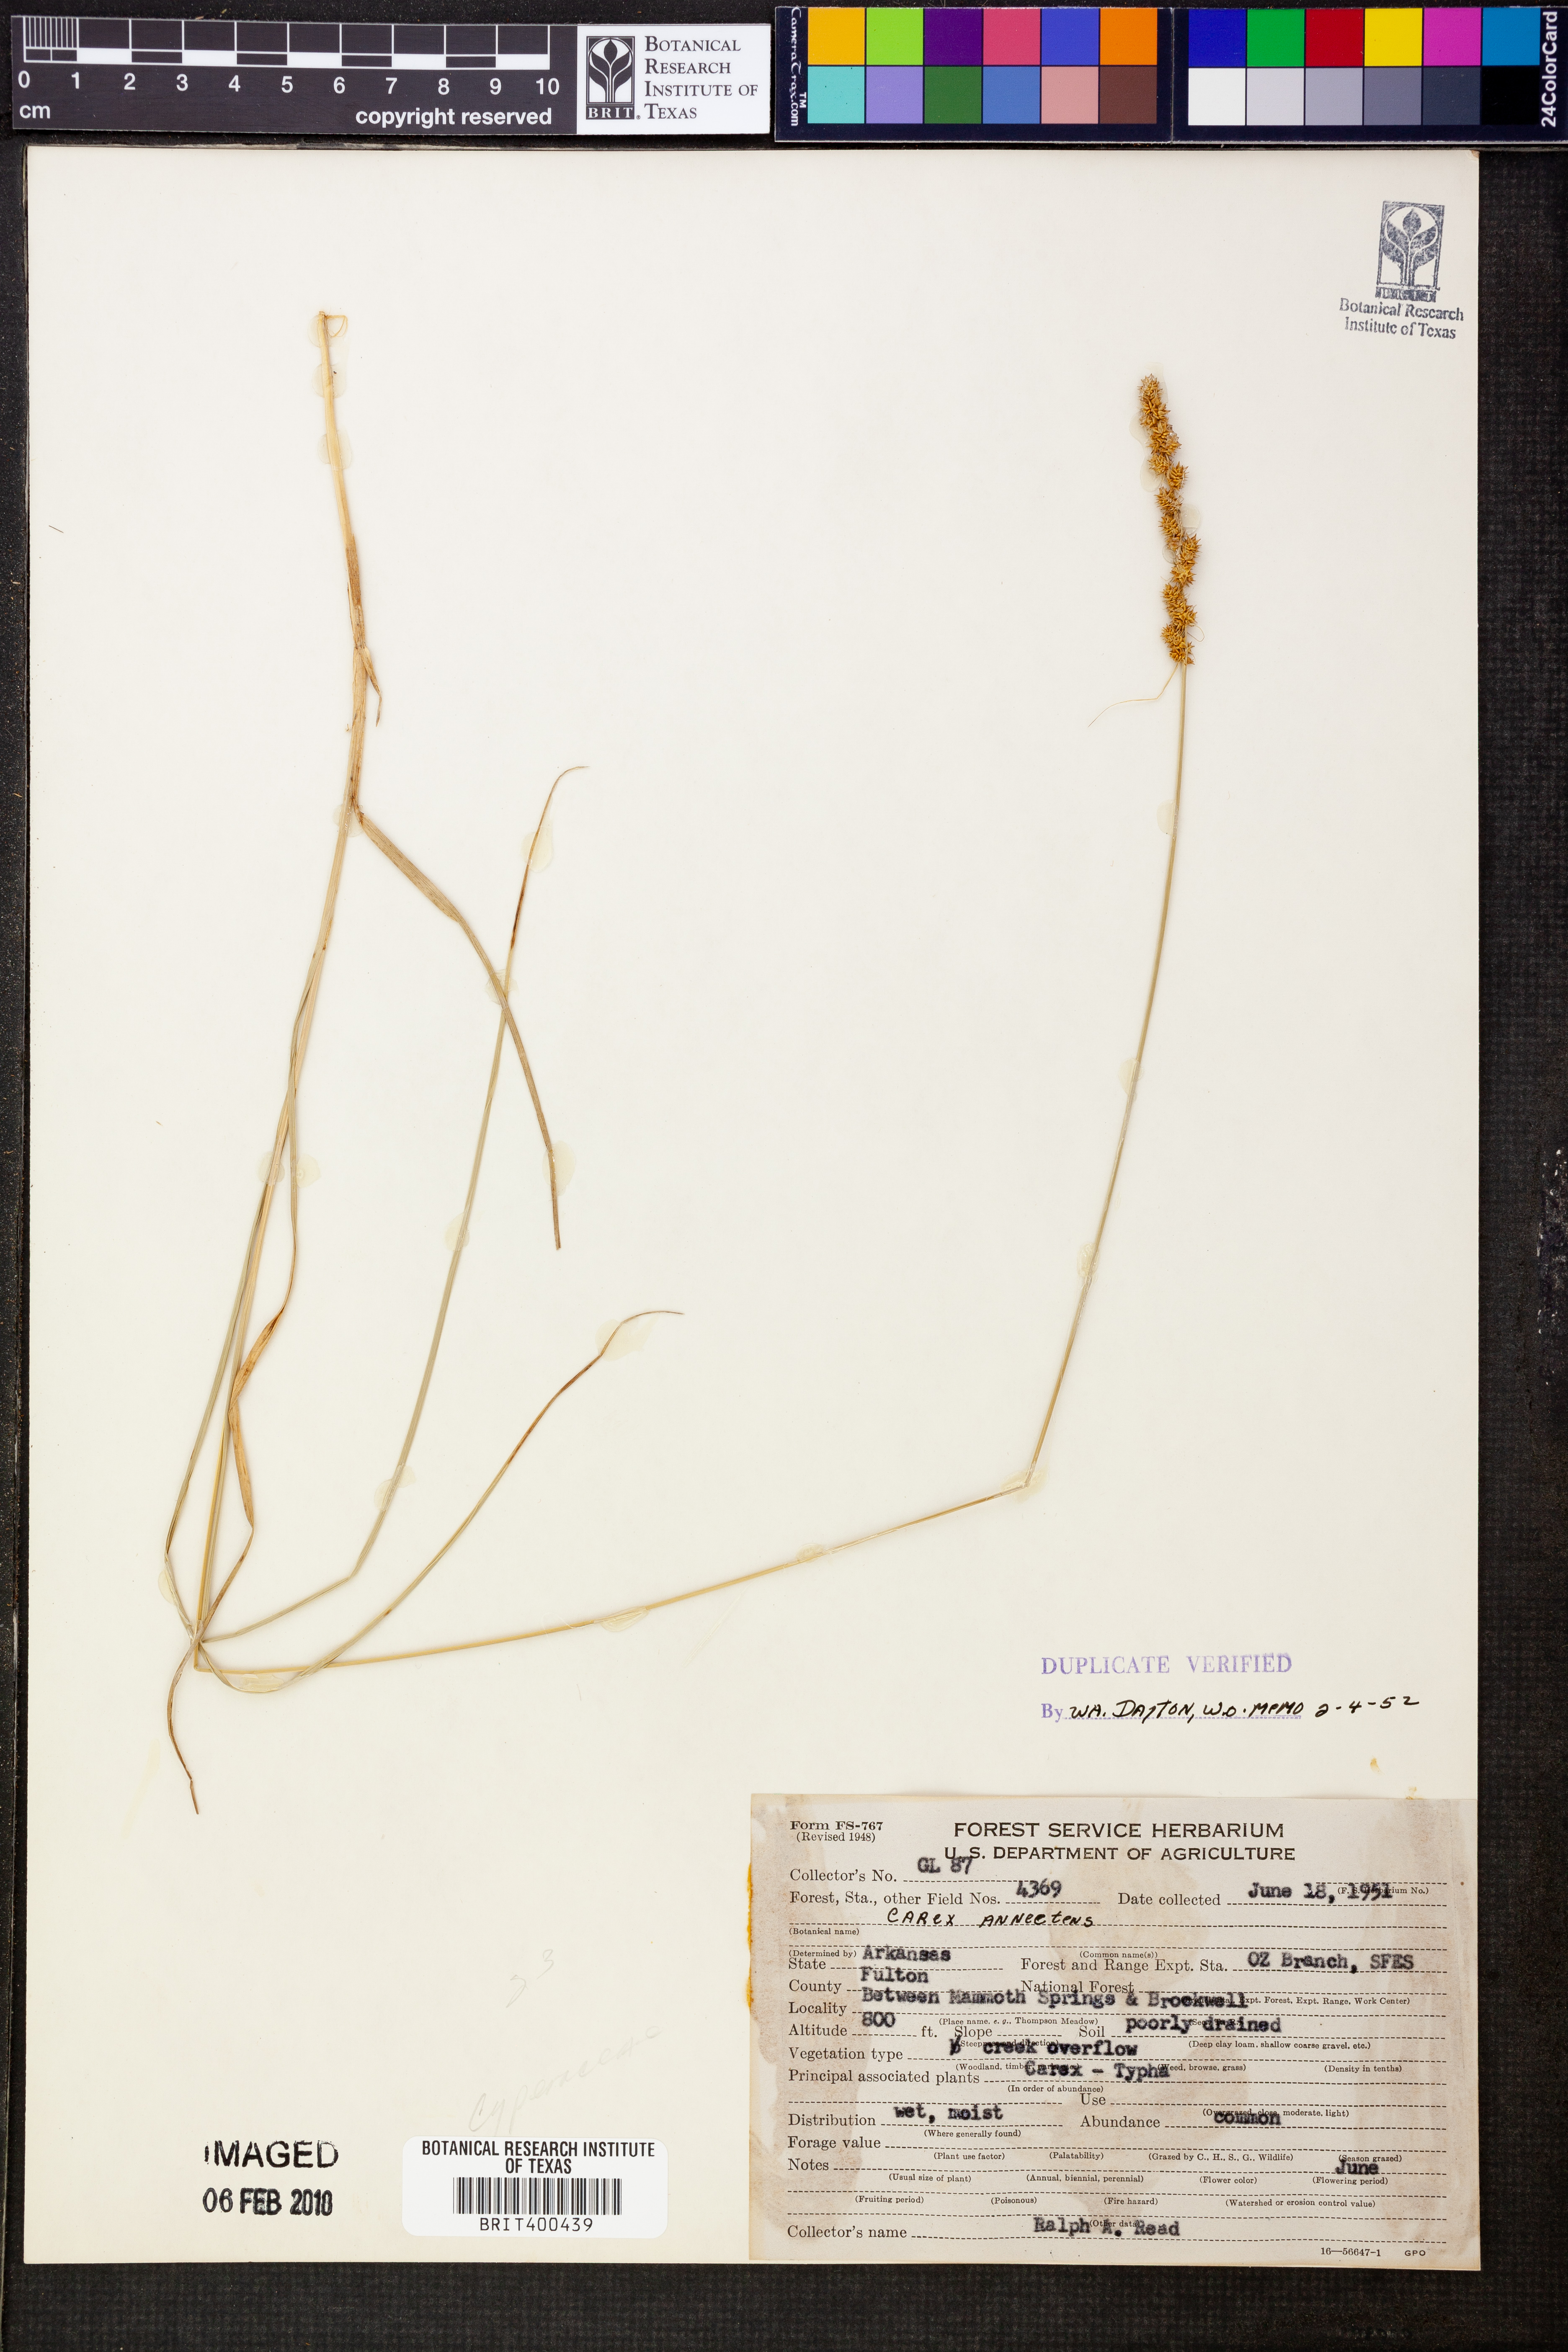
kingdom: Plantae
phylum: Tracheophyta
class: Liliopsida
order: Poales
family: Cyperaceae
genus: Carex
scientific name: Carex annectens
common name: Large fox sedge
